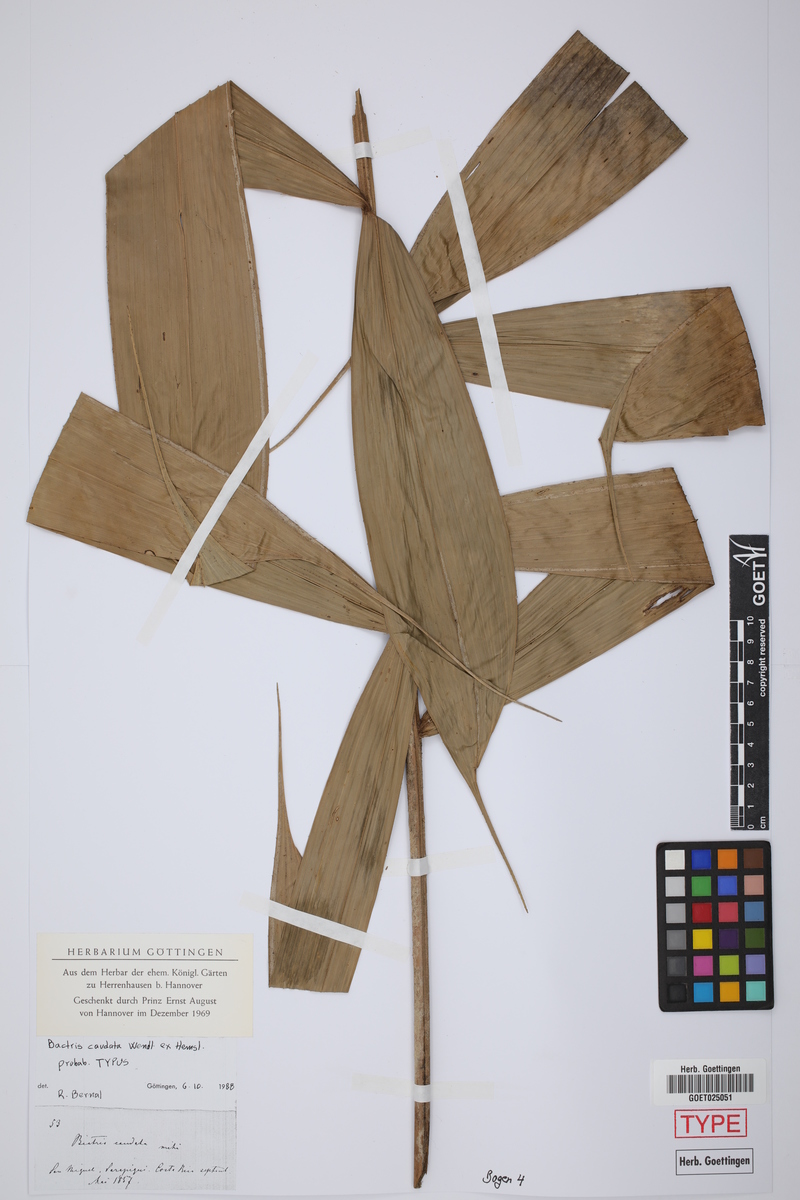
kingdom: Plantae
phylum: Tracheophyta
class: Liliopsida
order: Arecales
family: Arecaceae
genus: Bactris
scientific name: Bactris caudata
